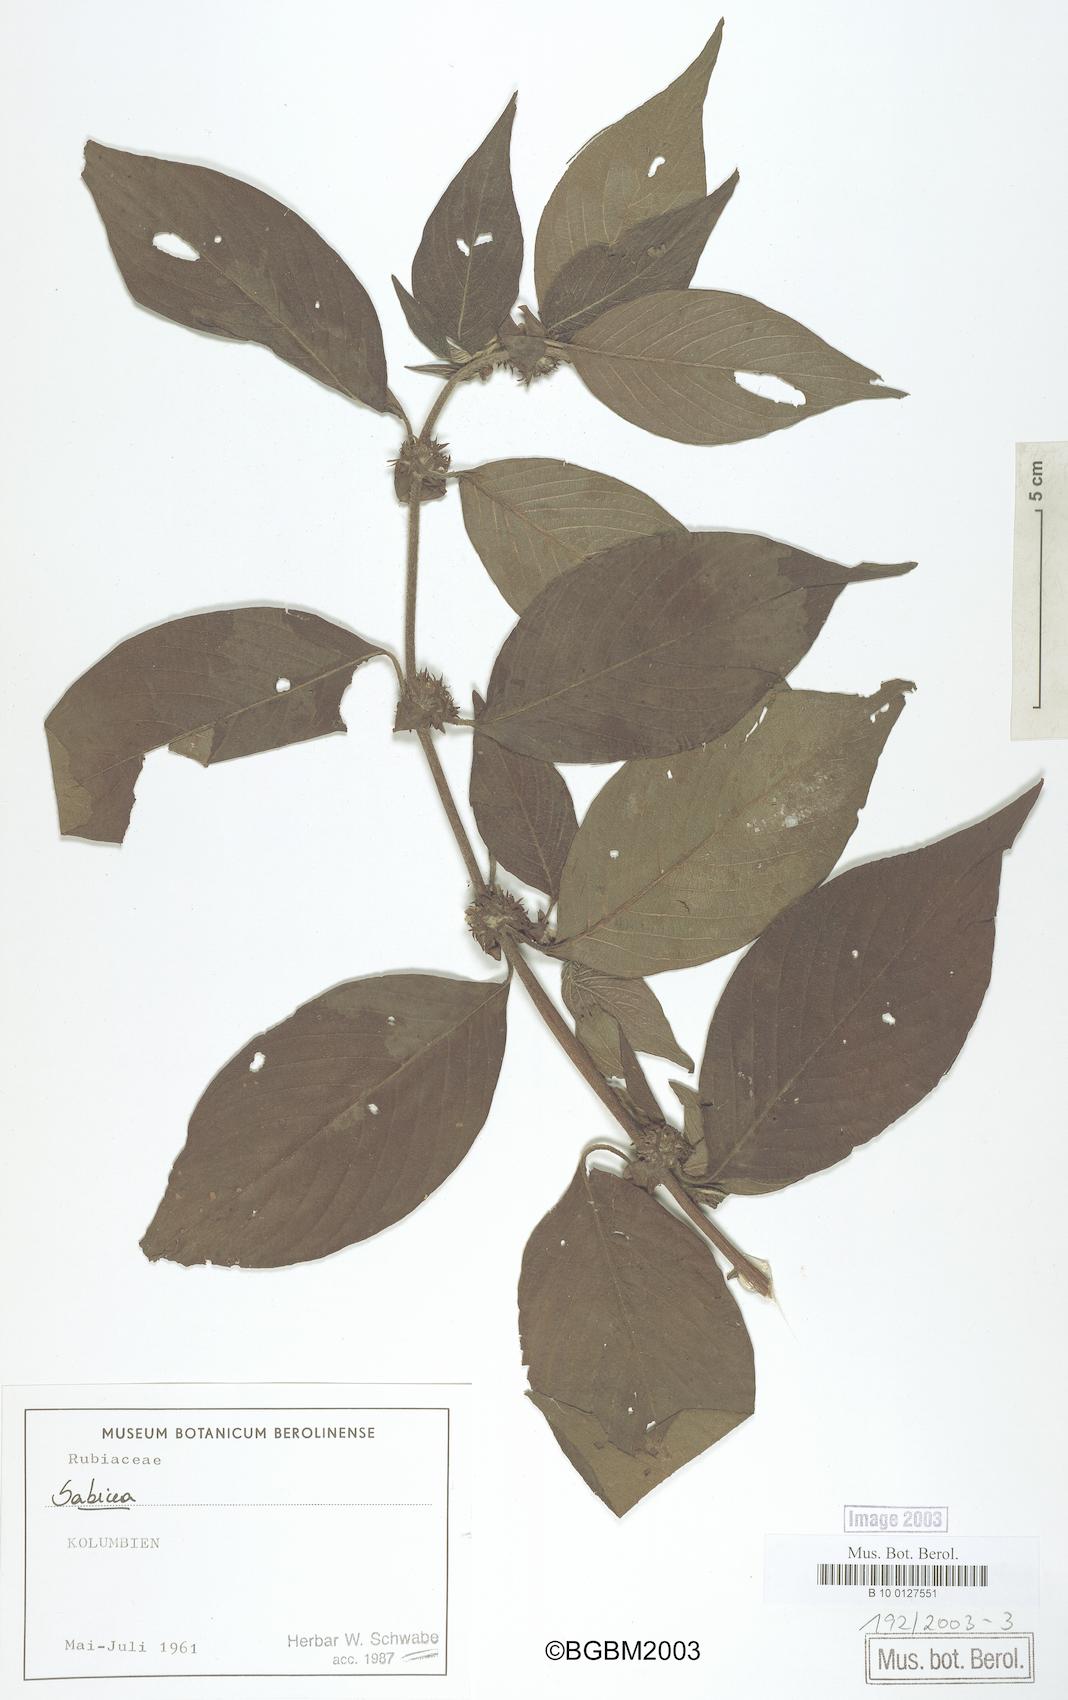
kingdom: Plantae
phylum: Tracheophyta
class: Magnoliopsida
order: Gentianales
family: Rubiaceae
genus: Sabicea
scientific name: Sabicea
